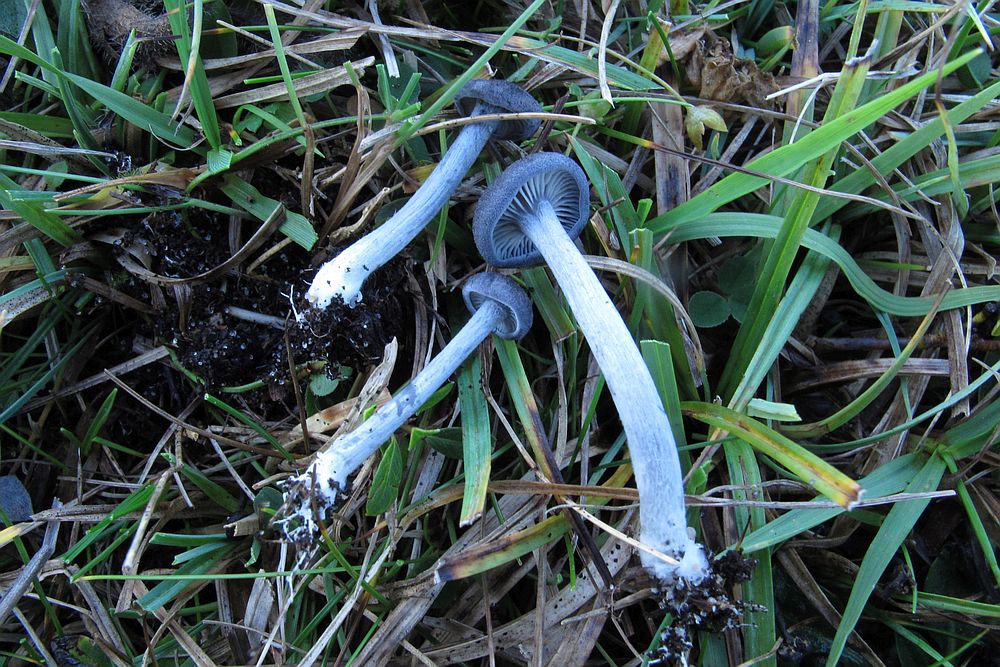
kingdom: Fungi
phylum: Basidiomycota
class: Agaricomycetes
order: Agaricales
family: Entolomataceae
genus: Entoloma
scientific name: Entoloma mougeotii
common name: violetgrå rødblad
